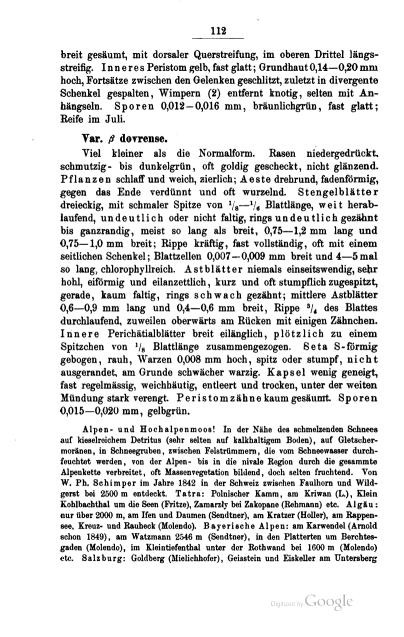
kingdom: Plantae
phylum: Bryophyta
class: Bryopsida
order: Hypnales
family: Brachytheciaceae
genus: Sciuro-hypnum
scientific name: Sciuro-hypnum dovrense
